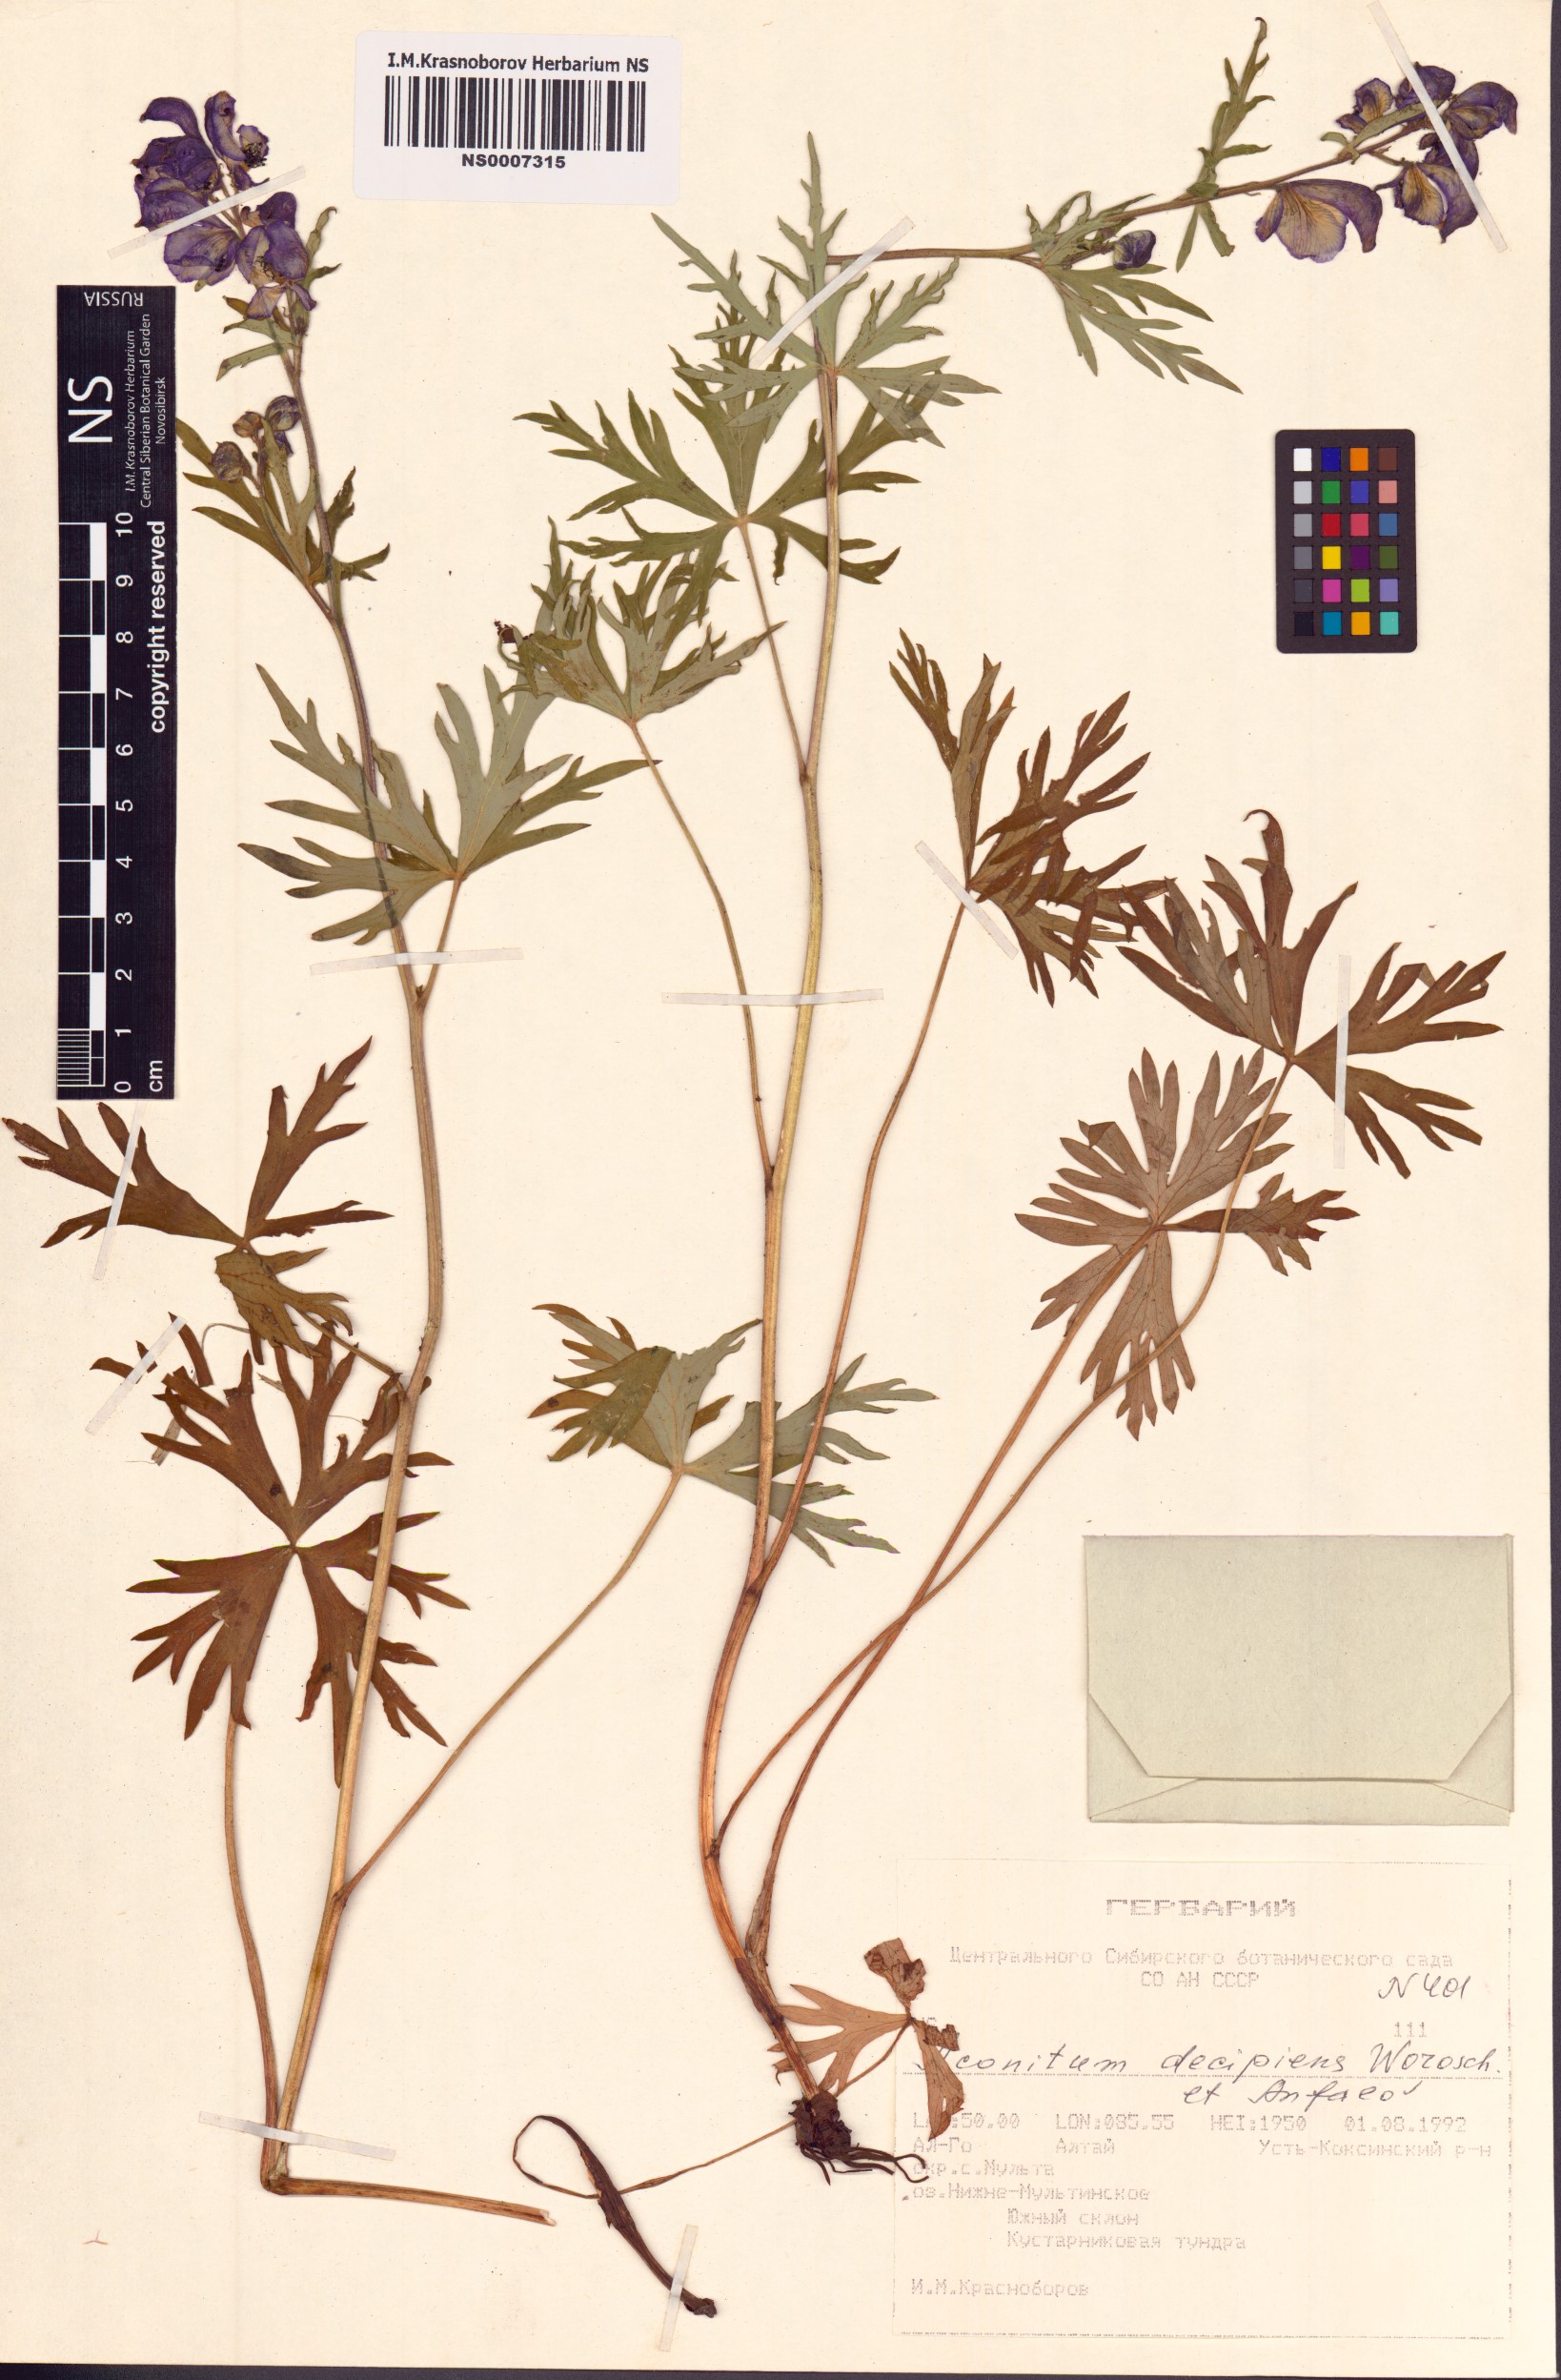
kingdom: Plantae
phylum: Tracheophyta
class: Magnoliopsida
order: Ranunculales
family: Ranunculaceae
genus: Aconitum
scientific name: Aconitum decipiens
